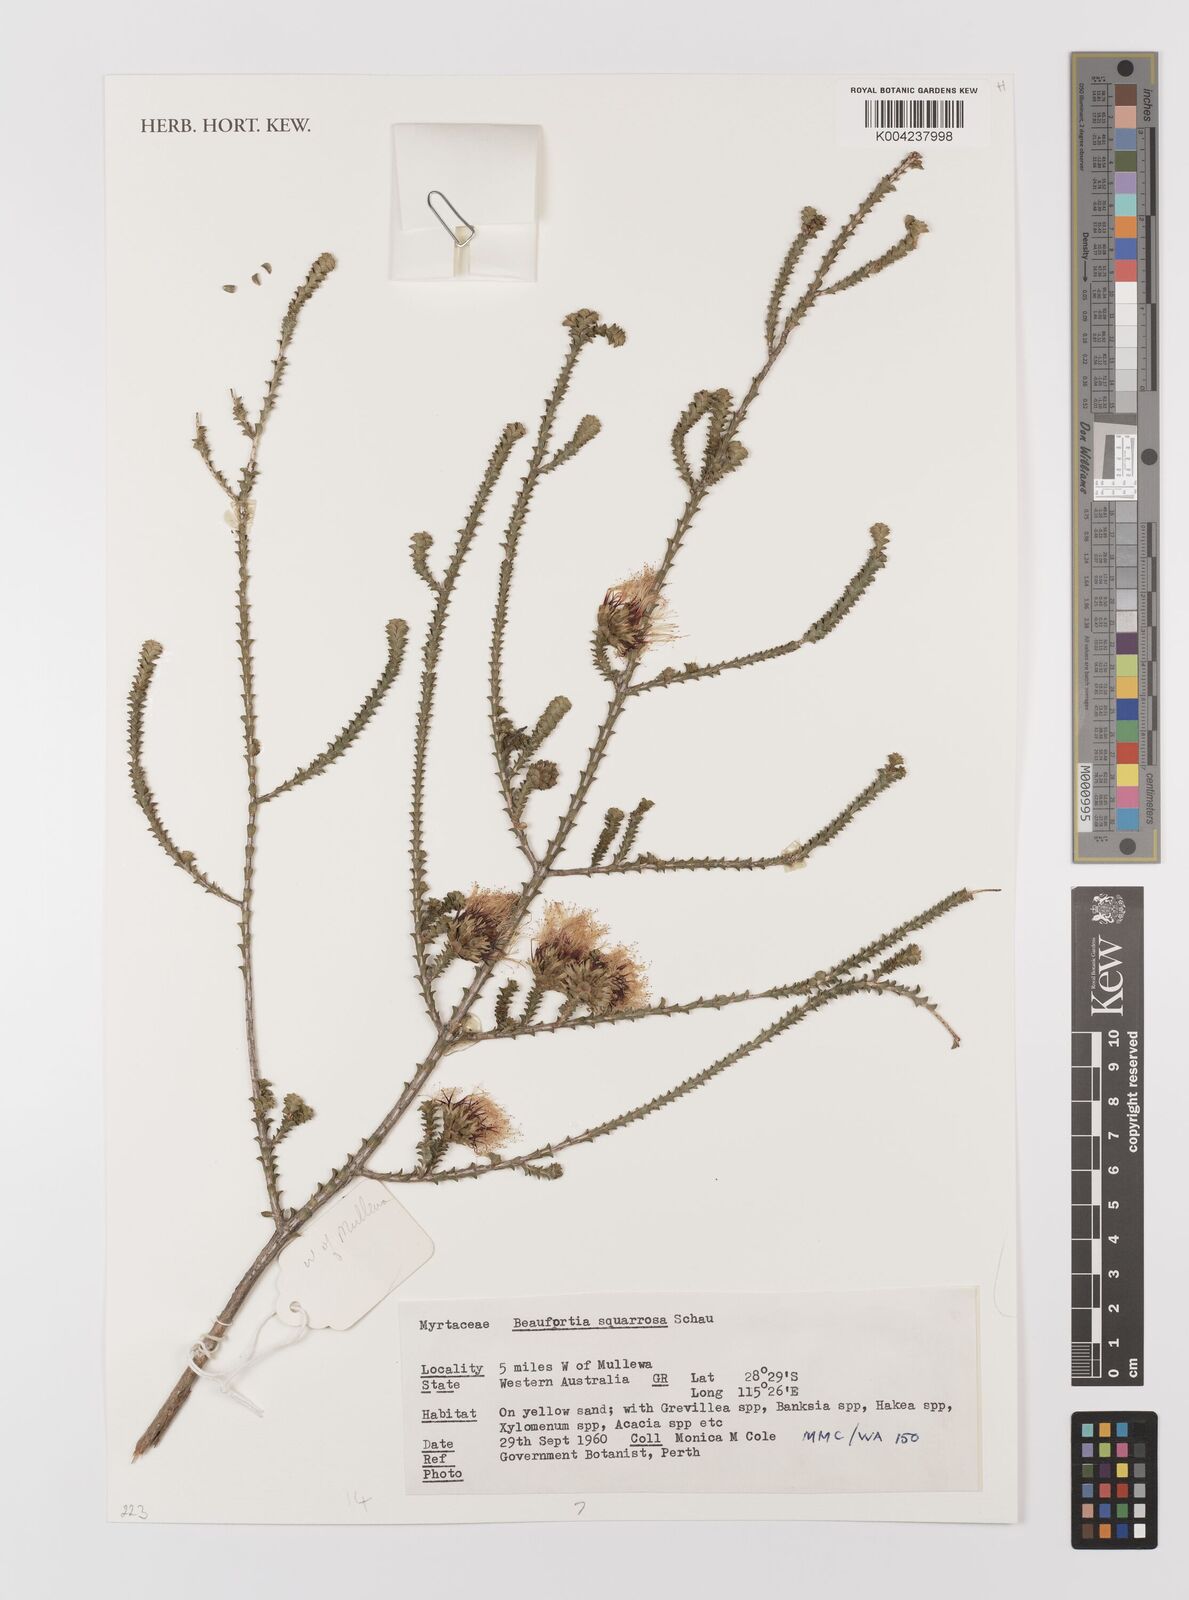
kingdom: Plantae
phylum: Tracheophyta
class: Magnoliopsida
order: Myrtales
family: Myrtaceae
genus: Melaleuca
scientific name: Melaleuca pulcherrima
